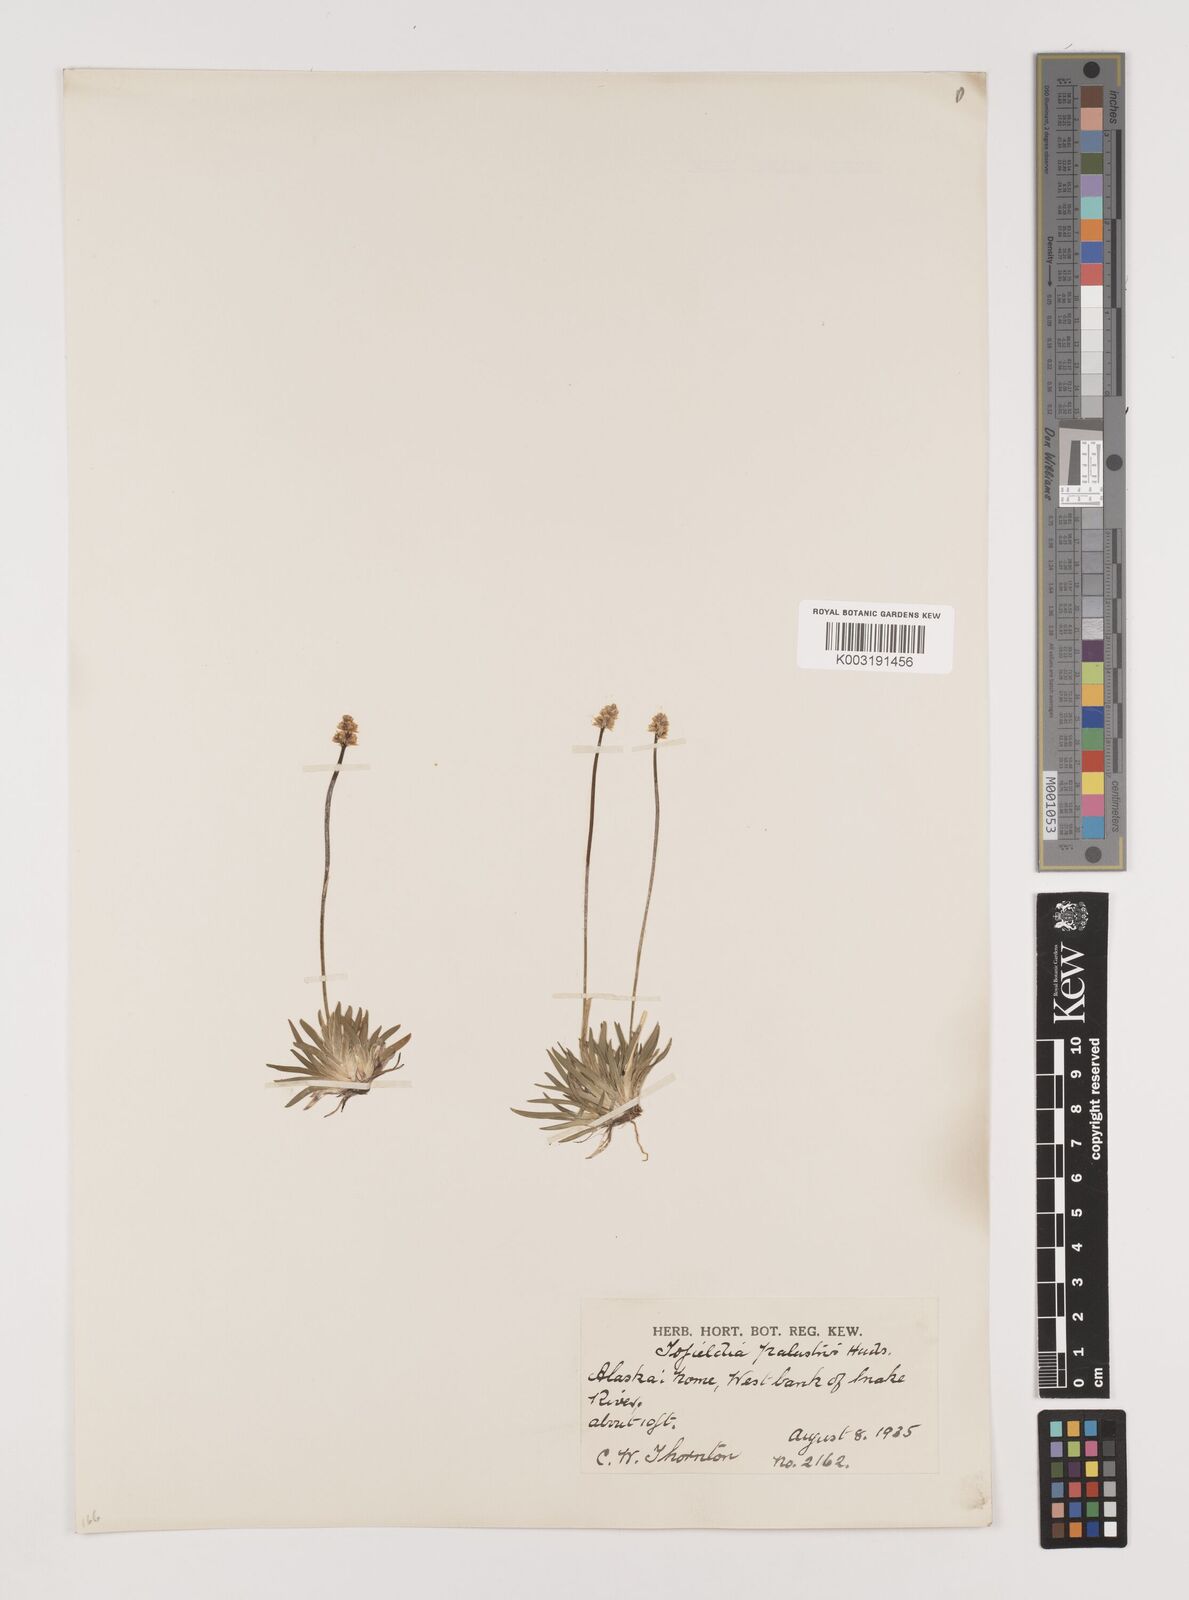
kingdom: Plantae
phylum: Tracheophyta
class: Liliopsida
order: Alismatales
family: Tofieldiaceae
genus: Tofieldia
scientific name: Tofieldia calyculata
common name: German-asphodel
